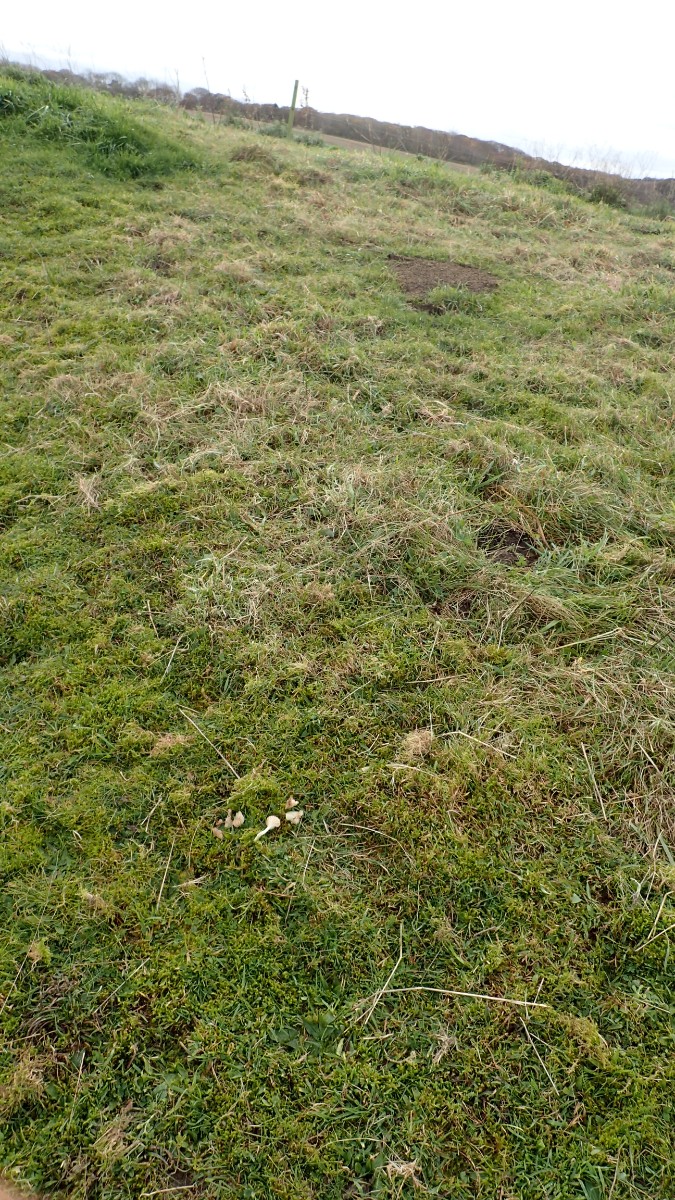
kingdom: Fungi
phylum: Basidiomycota
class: Agaricomycetes
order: Agaricales
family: Hygrophoraceae
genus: Cuphophyllus
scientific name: Cuphophyllus virgineus
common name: snehvid vokshat
